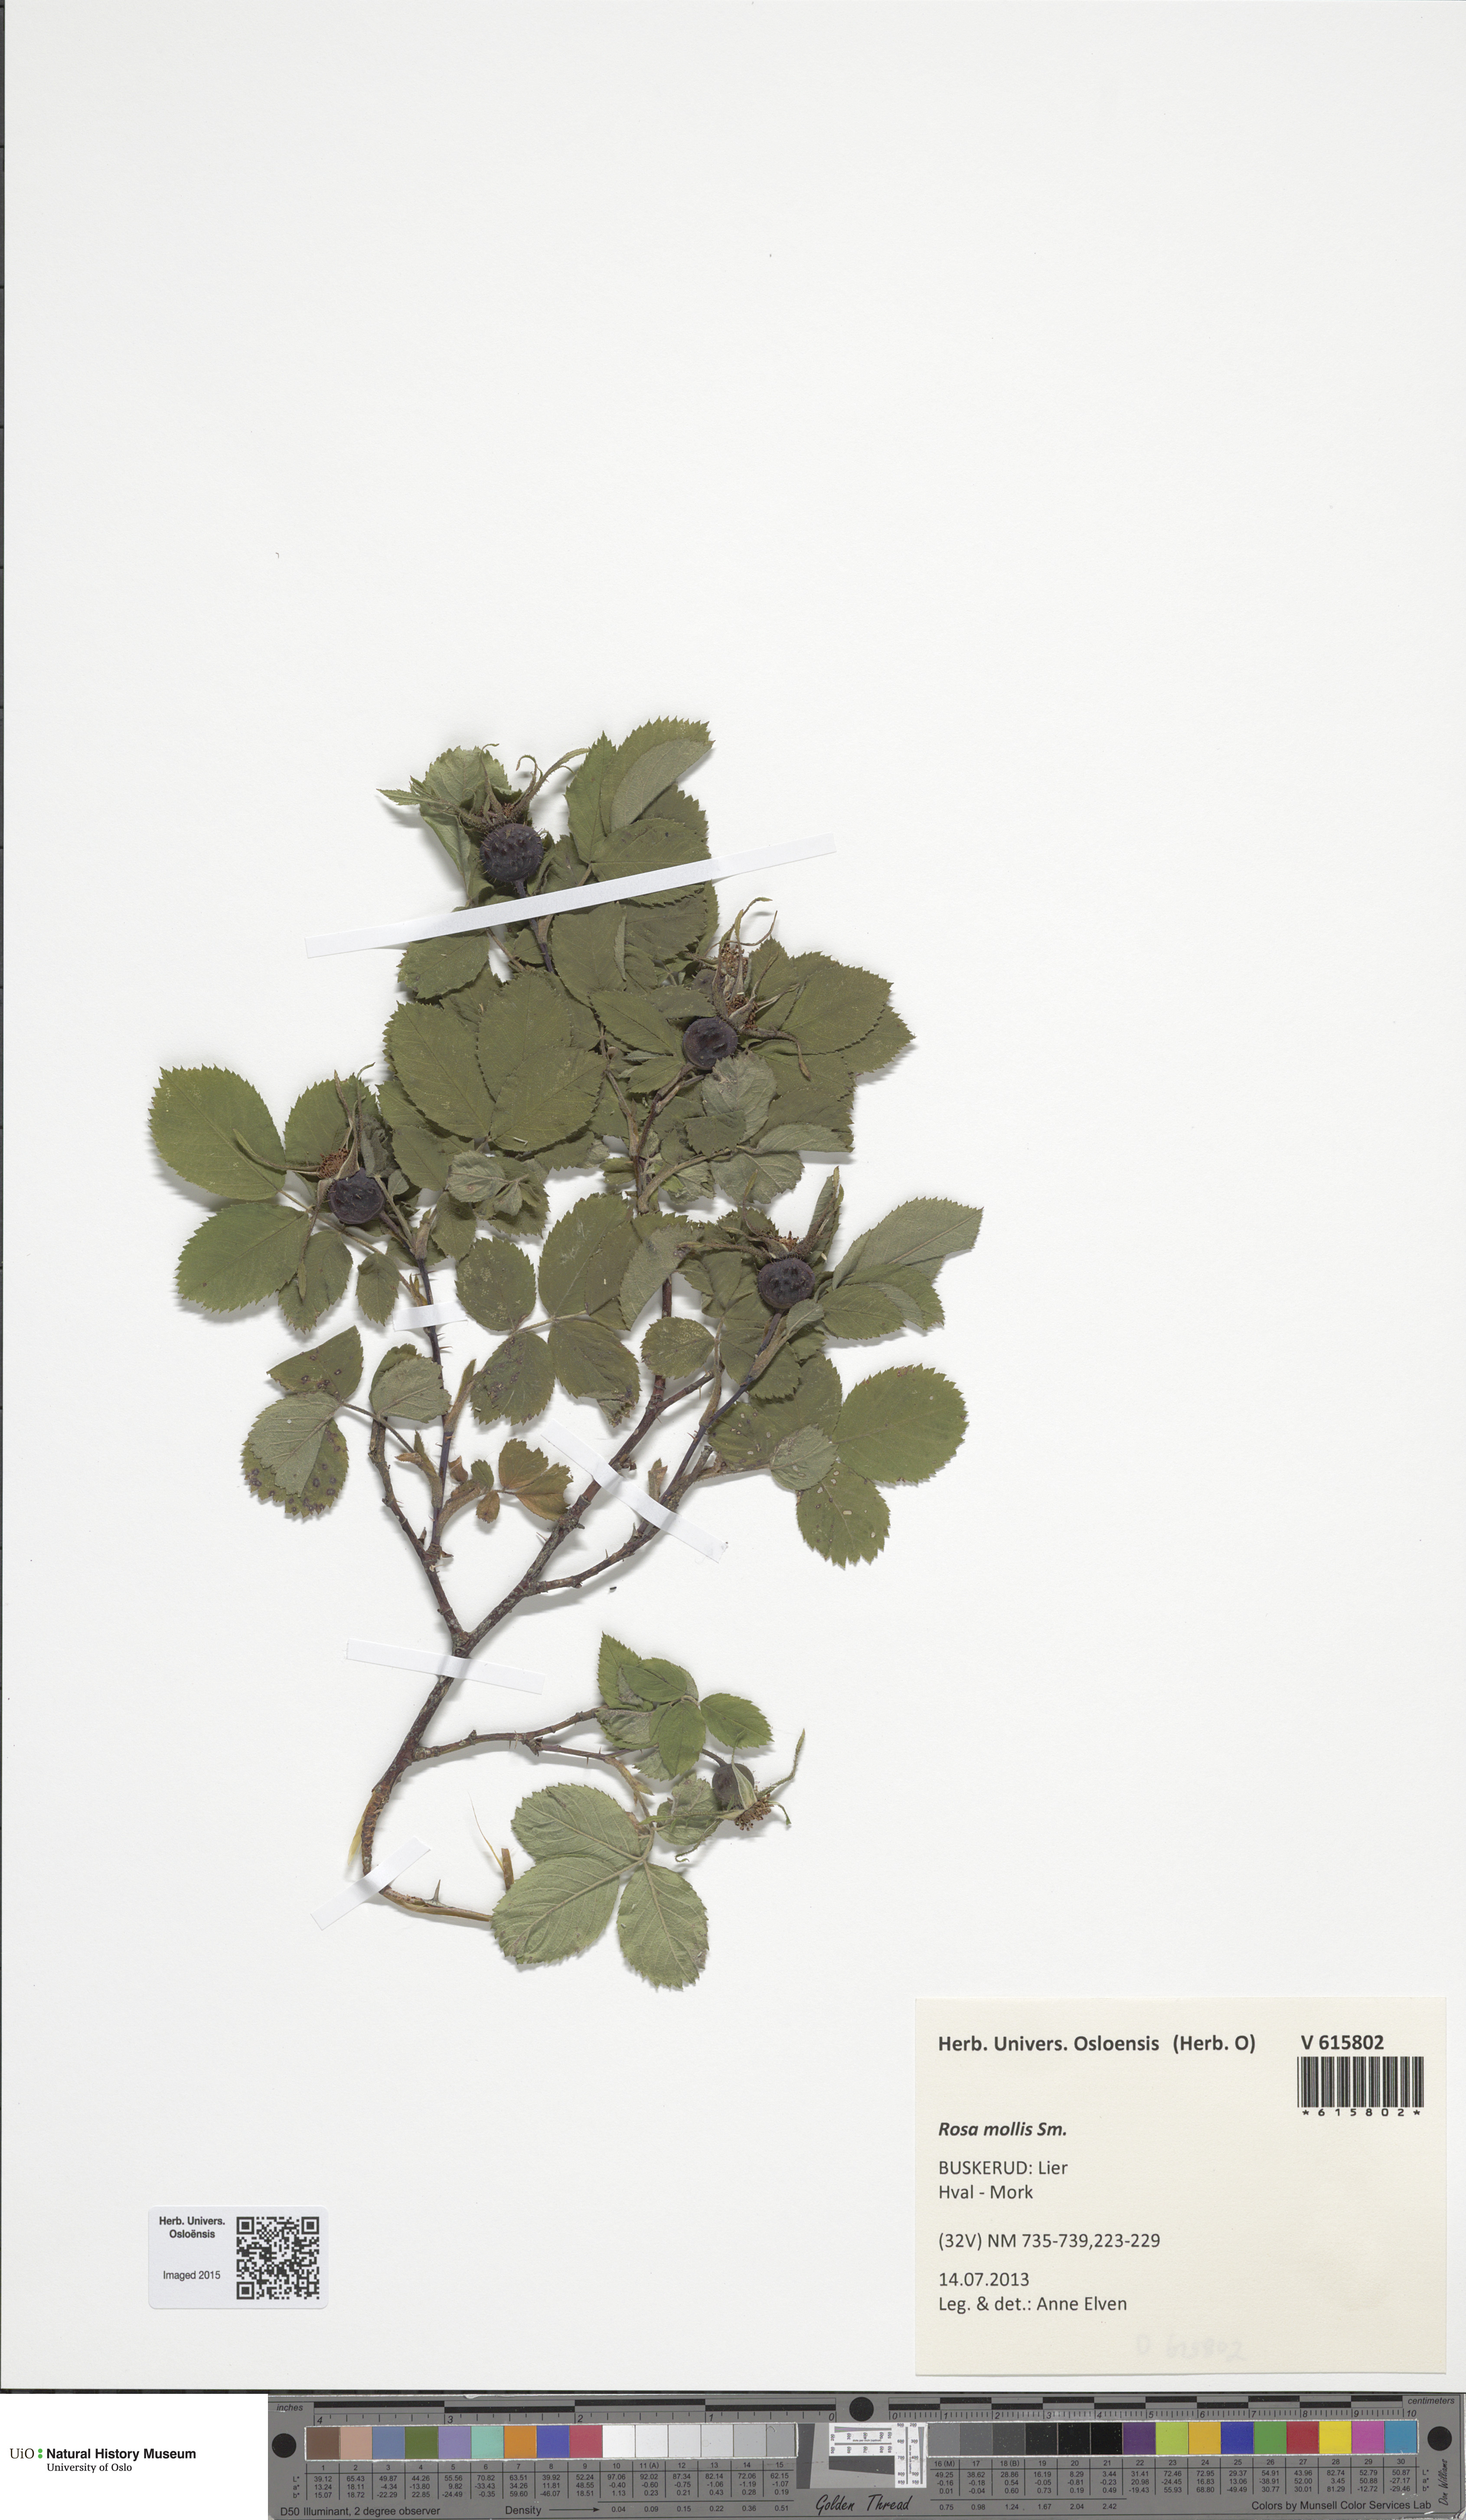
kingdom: Plantae
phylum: Tracheophyta
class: Magnoliopsida
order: Rosales
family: Rosaceae
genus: Rosa
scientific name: Rosa mollis
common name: Rose
